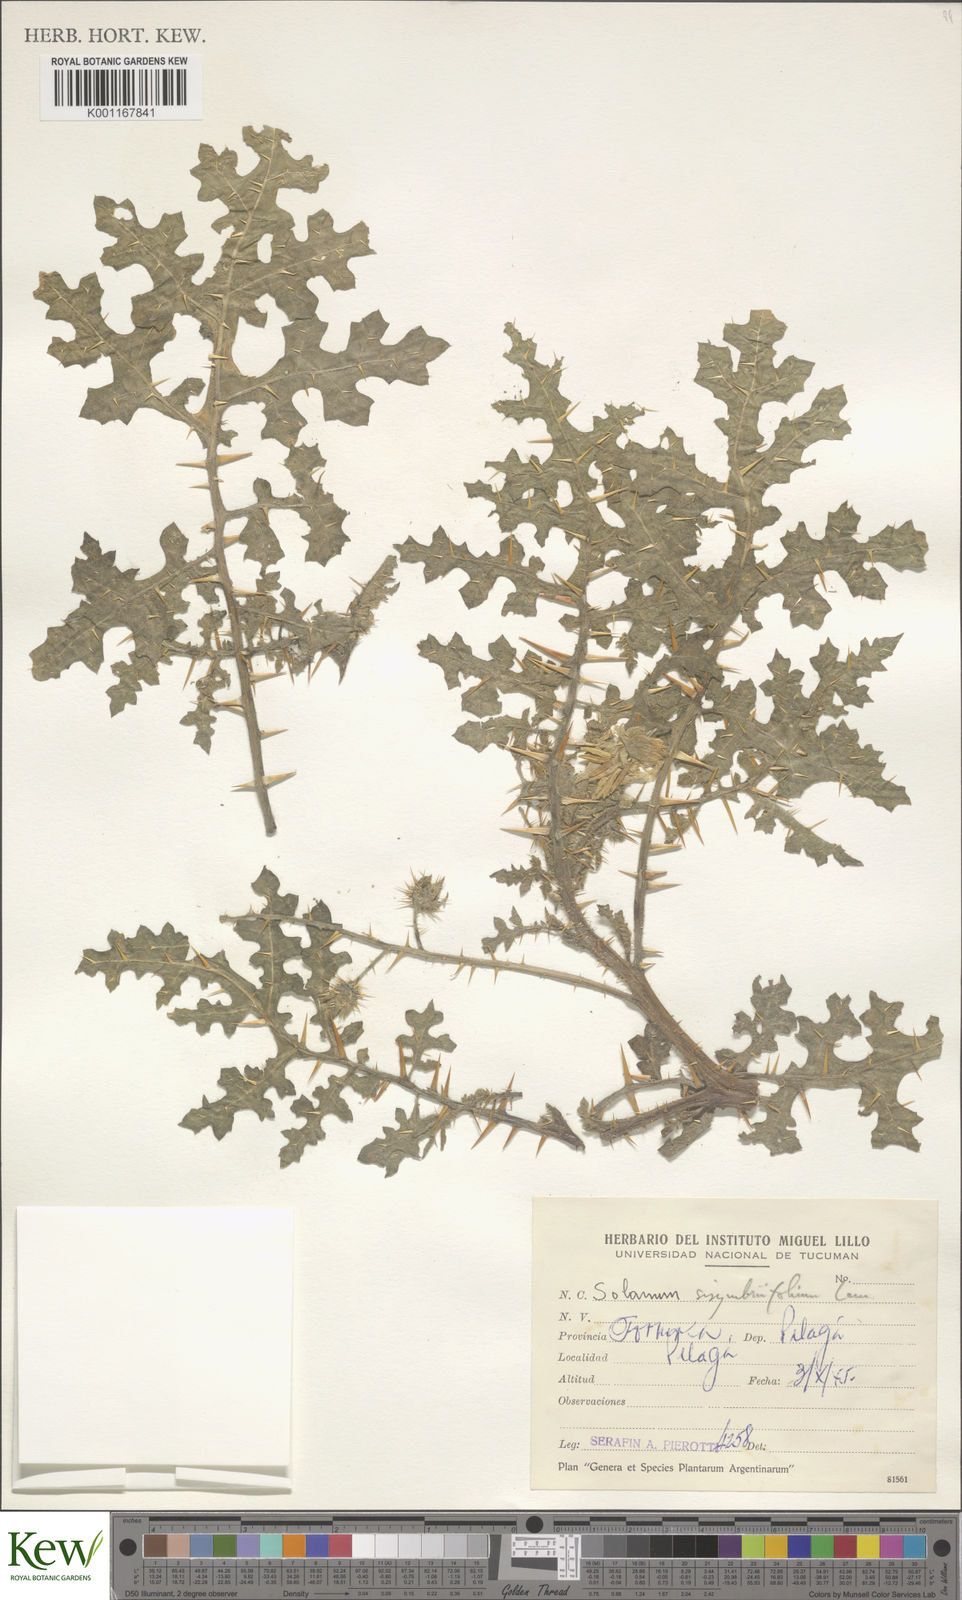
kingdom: Plantae
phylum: Tracheophyta
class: Magnoliopsida
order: Solanales
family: Solanaceae
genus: Solanum
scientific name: Solanum sisymbriifolium
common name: Red buffalo-bur
